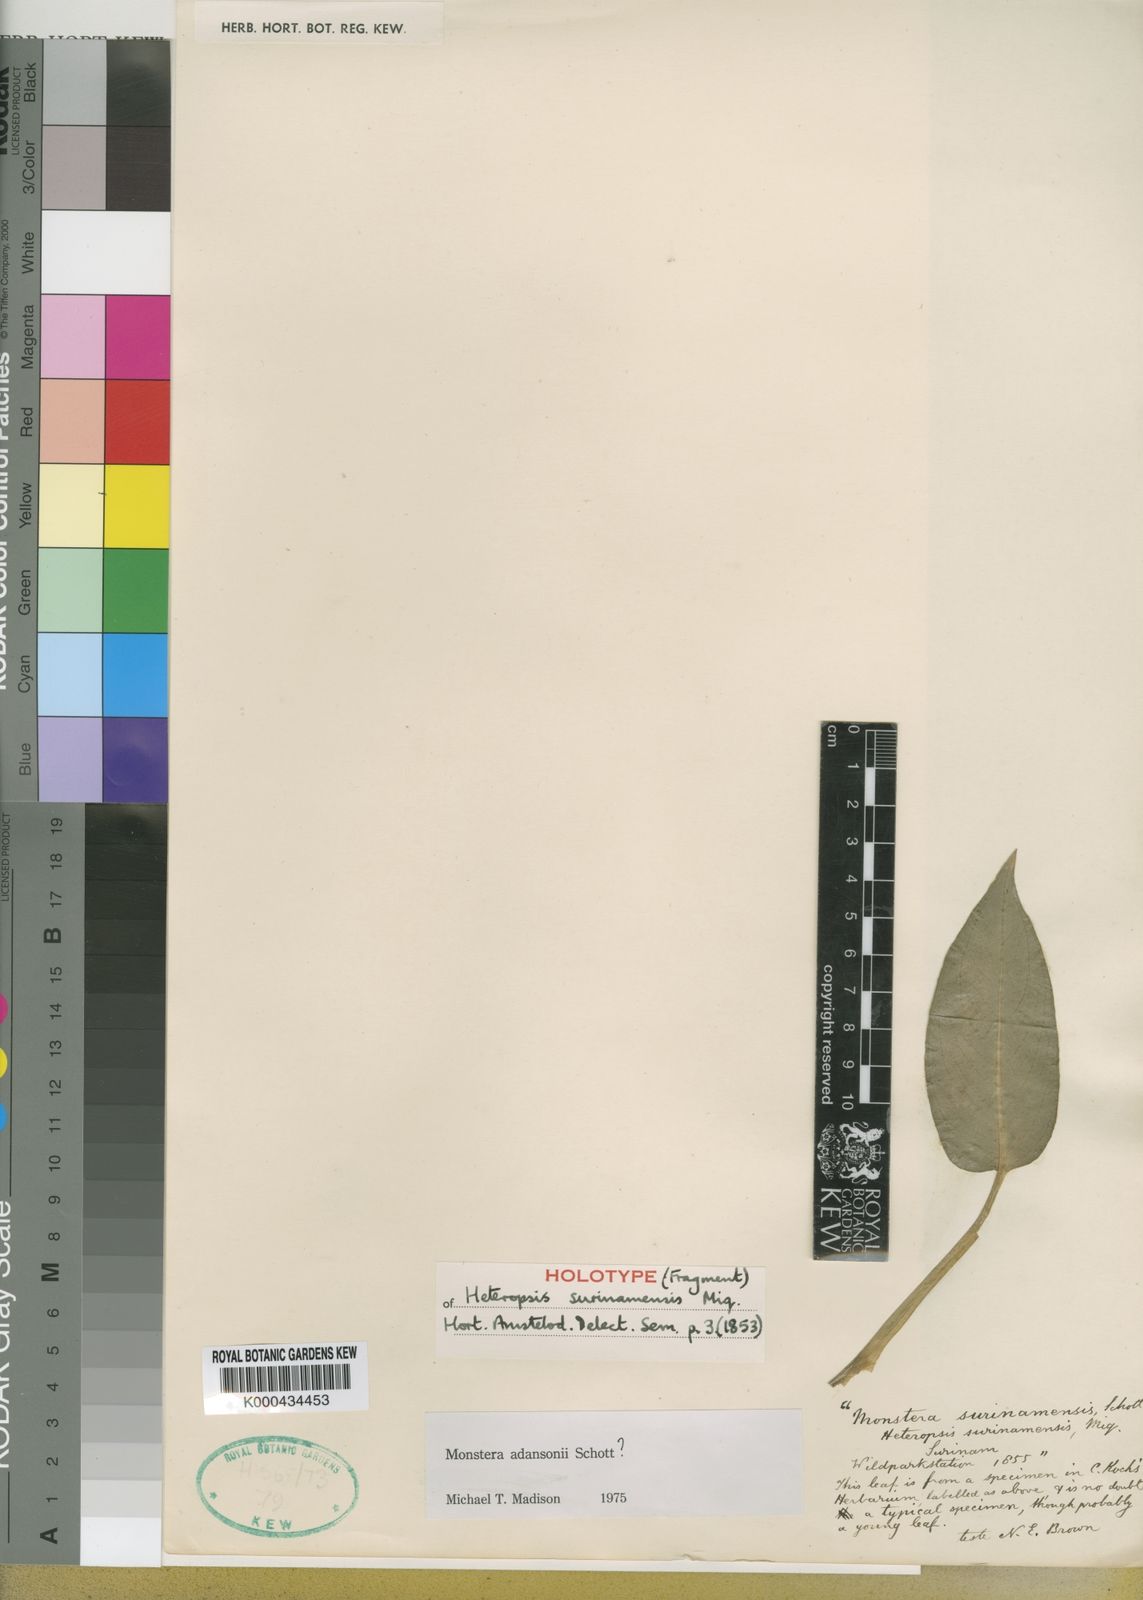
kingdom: Plantae
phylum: Tracheophyta
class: Liliopsida
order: Alismatales
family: Araceae
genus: Monstera
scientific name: Monstera adansonii
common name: Tarovine
